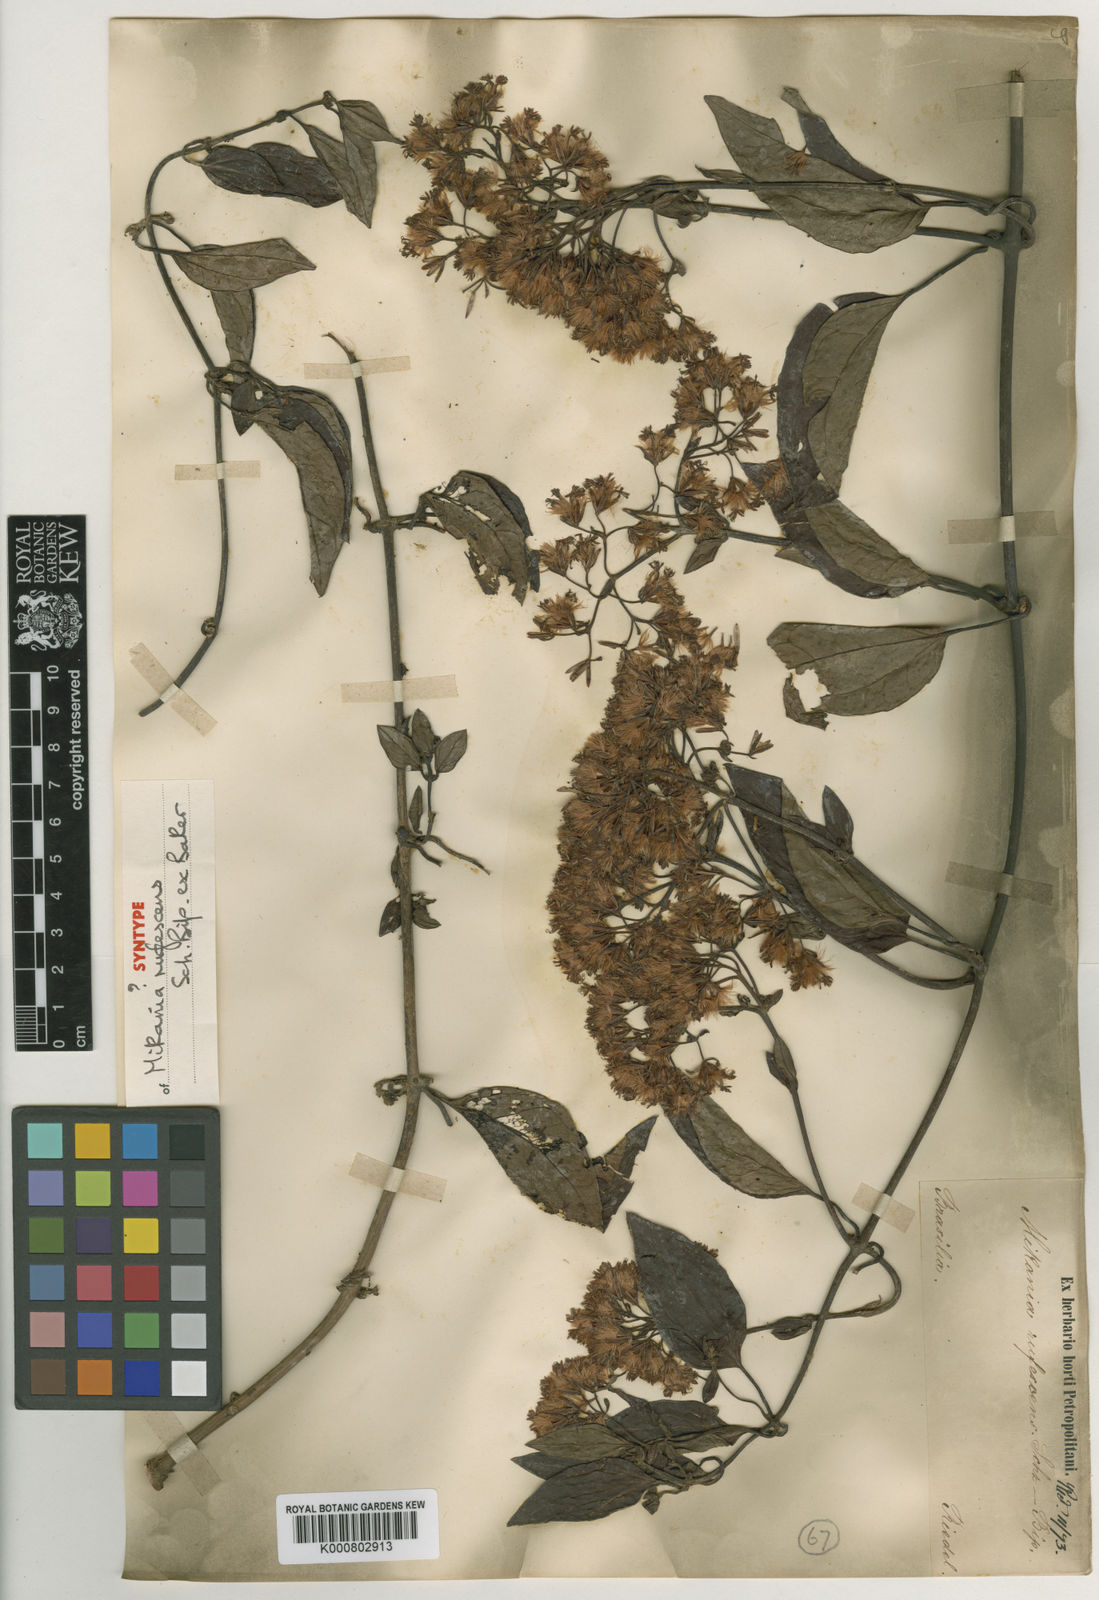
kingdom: Plantae
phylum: Tracheophyta
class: Magnoliopsida
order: Asterales
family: Asteraceae
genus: Mikania
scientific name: Mikania rufescens
